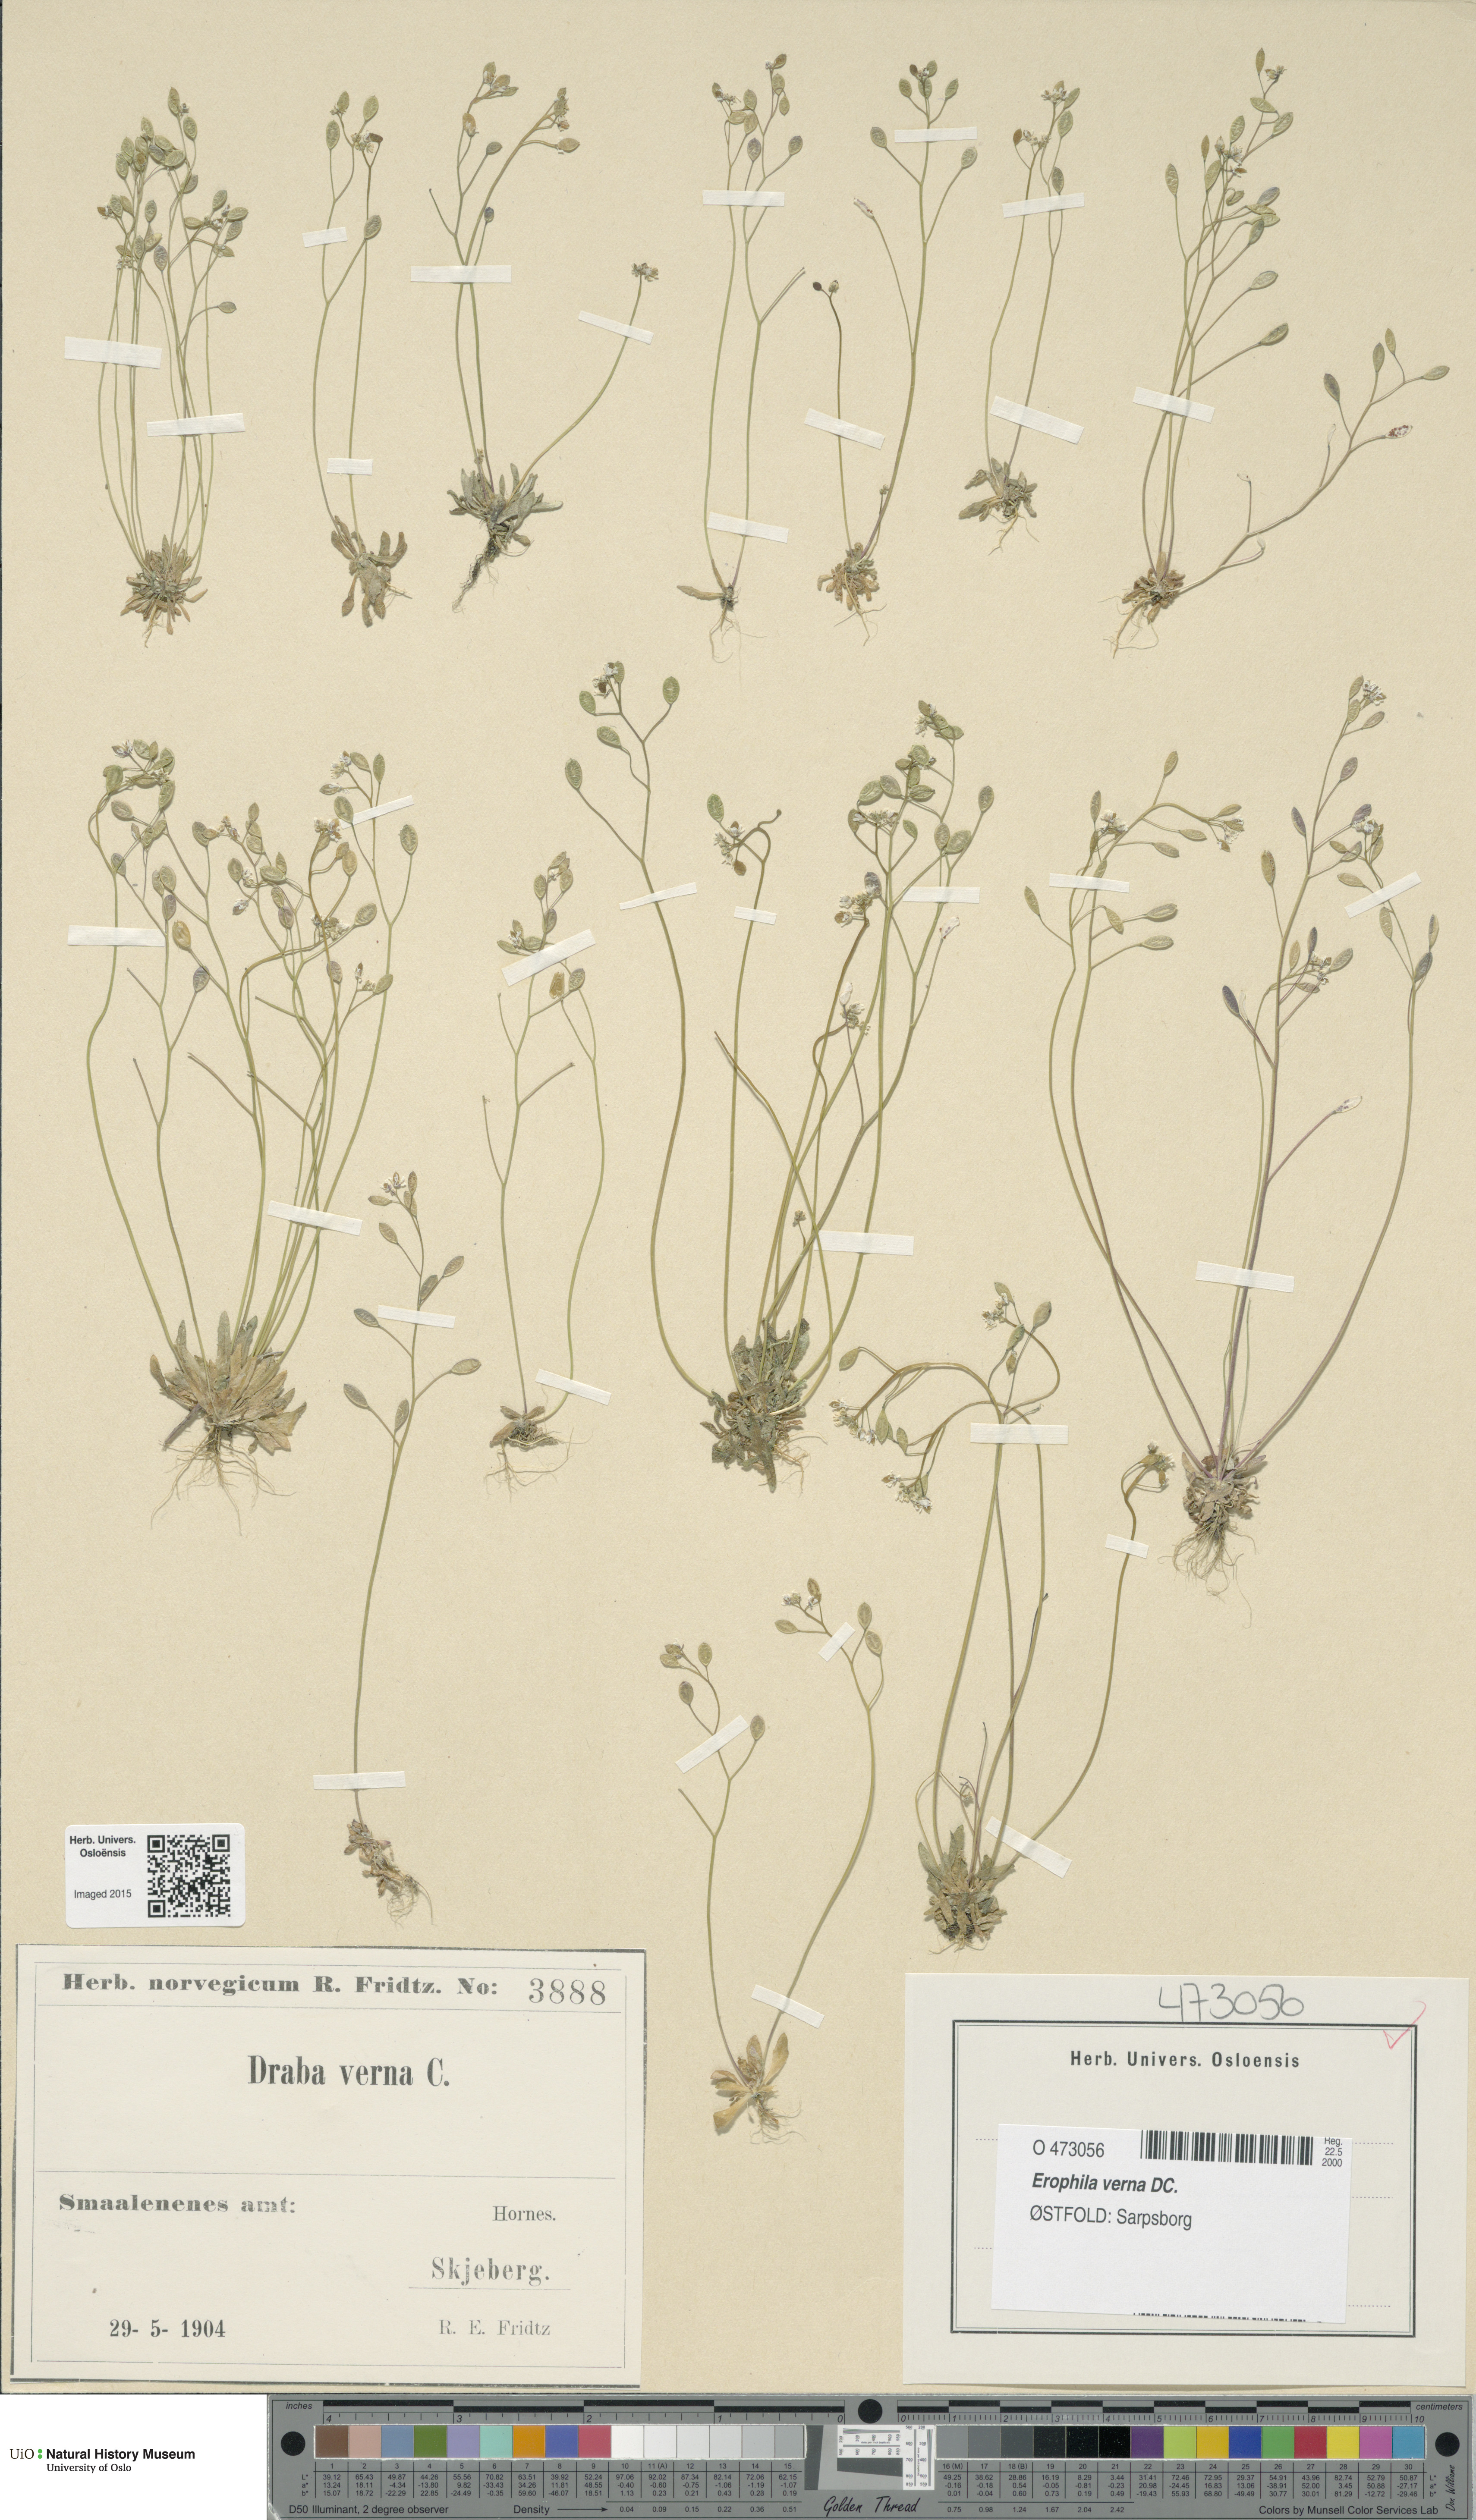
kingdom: Plantae
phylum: Tracheophyta
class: Magnoliopsida
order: Brassicales
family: Brassicaceae
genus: Draba
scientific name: Draba verna
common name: Spring draba
